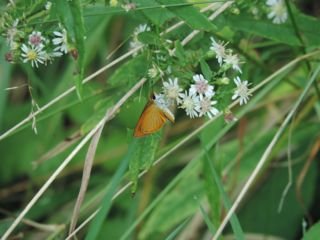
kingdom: Animalia
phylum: Arthropoda
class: Insecta
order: Lepidoptera
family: Hesperiidae
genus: Ancyloxypha
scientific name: Ancyloxypha numitor
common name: Least Skipper
